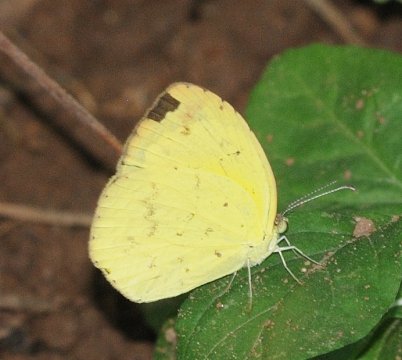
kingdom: Animalia
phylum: Arthropoda
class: Insecta
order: Lepidoptera
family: Pieridae
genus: Eurema
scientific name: Eurema desjardinsii
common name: Angled Grass Yellow
